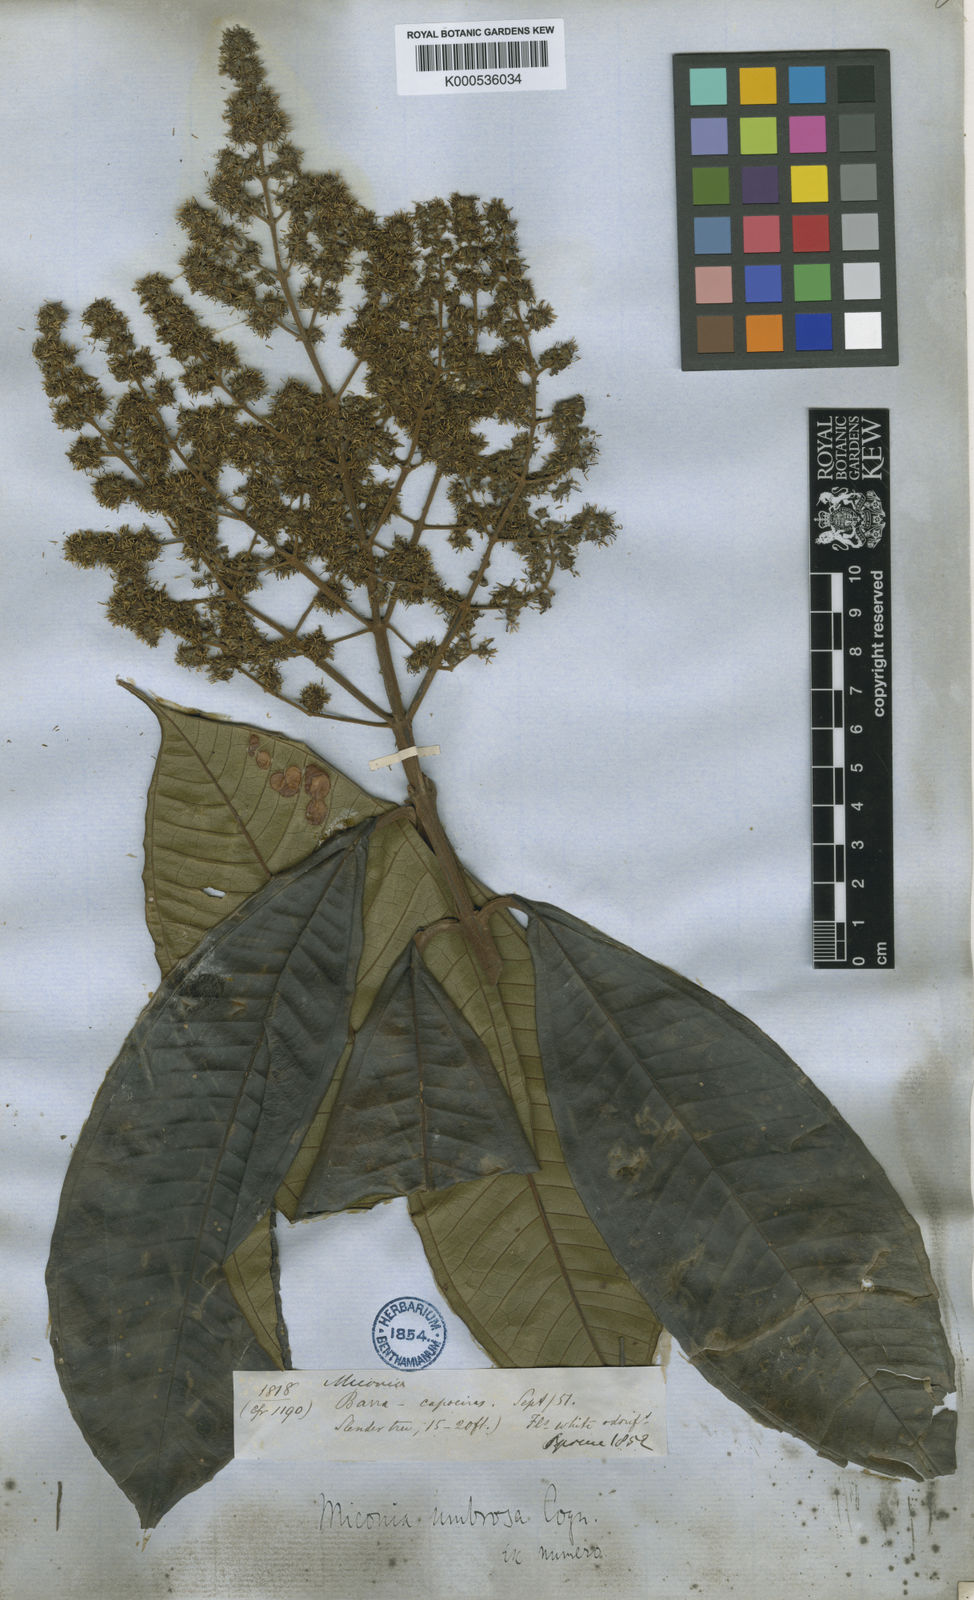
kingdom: Plantae
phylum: Tracheophyta
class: Magnoliopsida
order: Myrtales
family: Melastomataceae
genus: Miconia
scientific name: Miconia umbrosa
